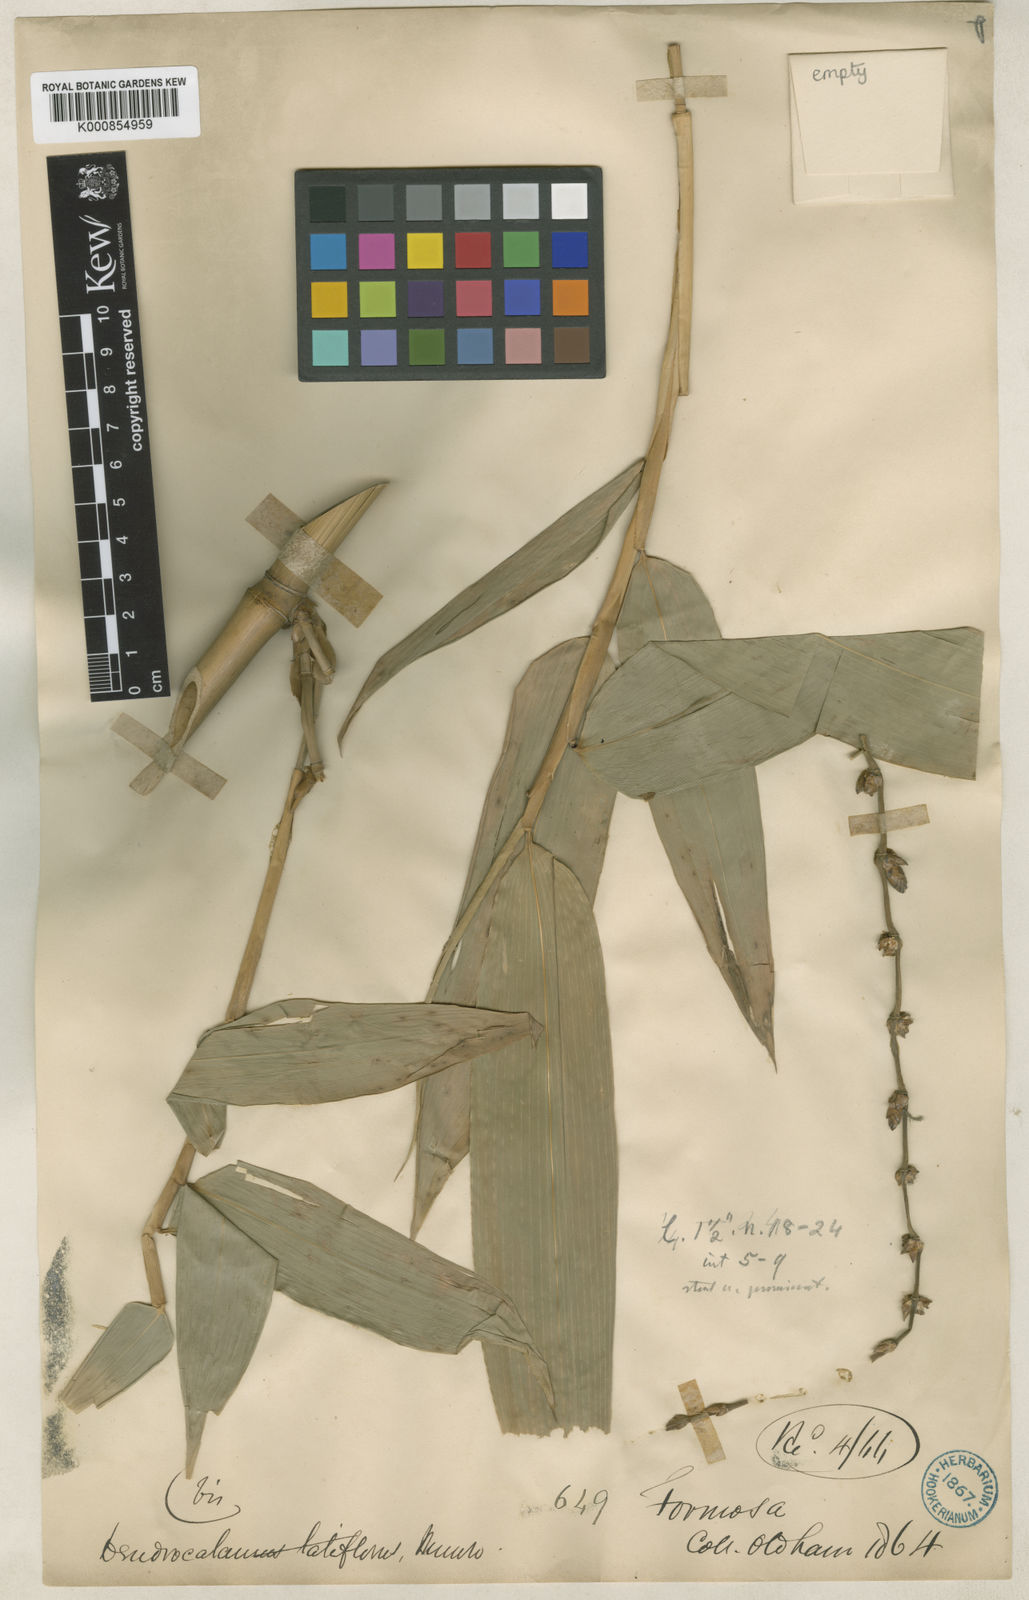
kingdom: Plantae
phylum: Tracheophyta
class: Liliopsida
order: Poales
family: Poaceae
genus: Dendrocalamus
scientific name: Dendrocalamus latiflorus
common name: Giant bamboo
